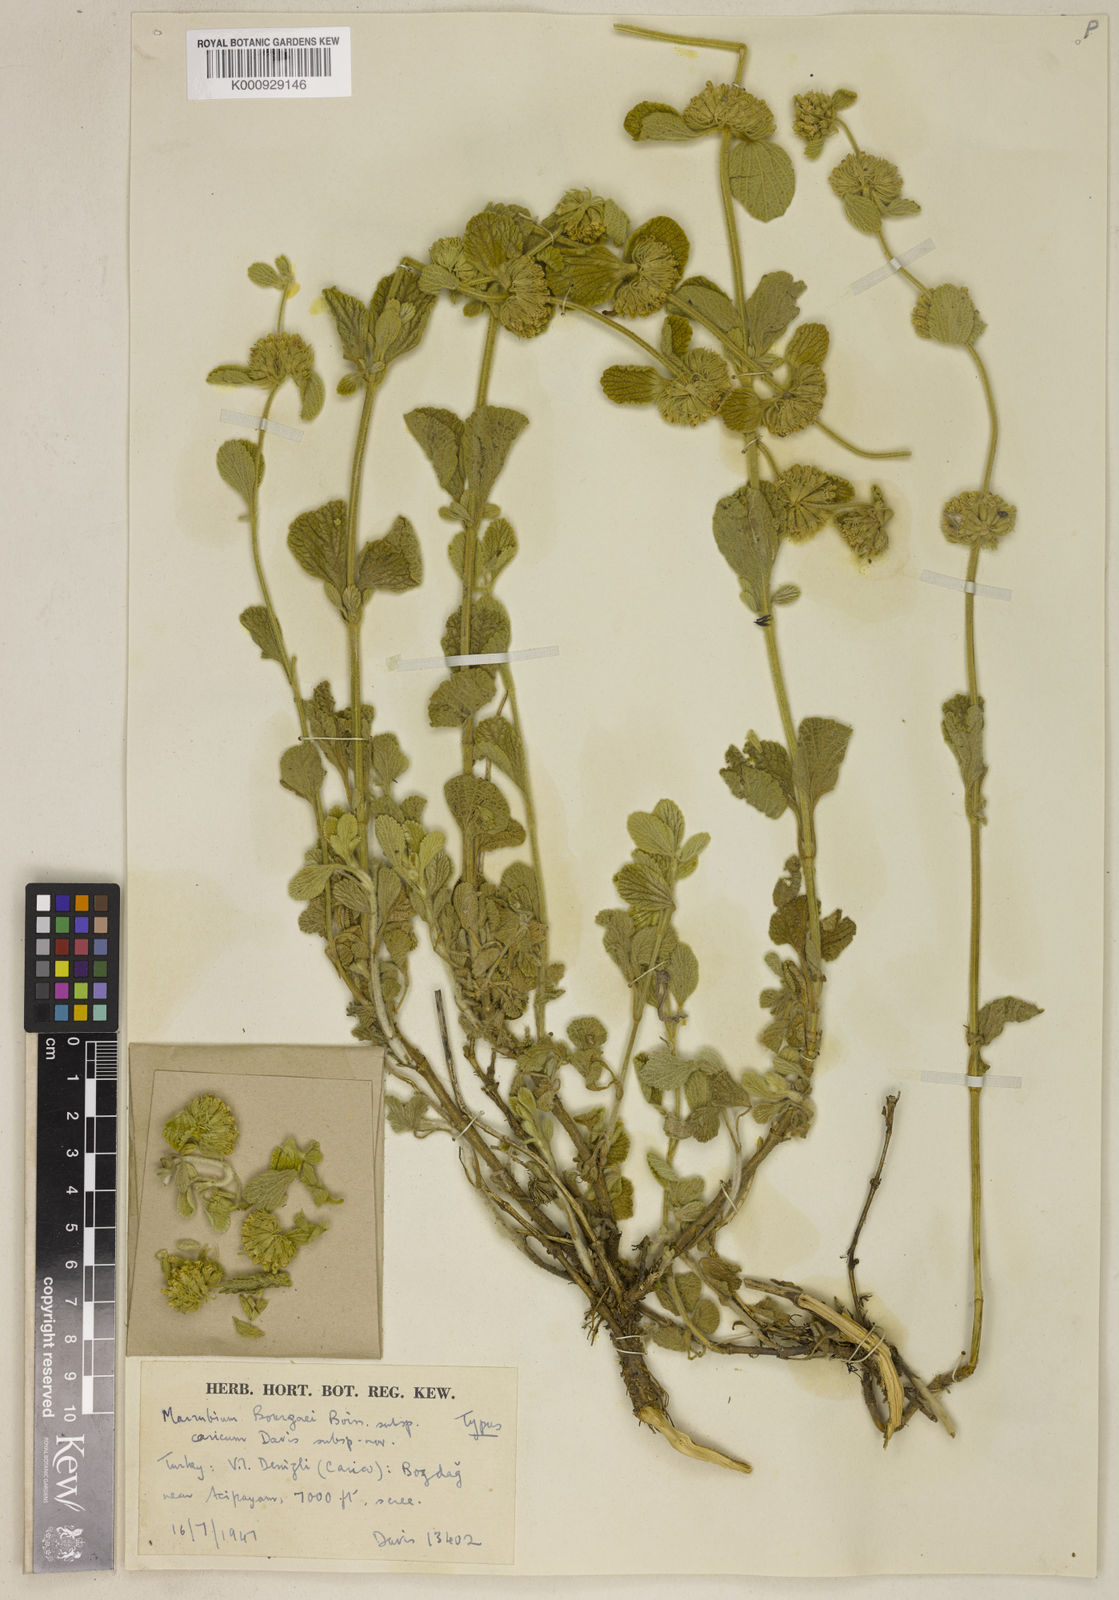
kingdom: Plantae
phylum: Tracheophyta
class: Magnoliopsida
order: Lamiales
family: Lamiaceae
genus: Marrubium
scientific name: Marrubium bourgaei
